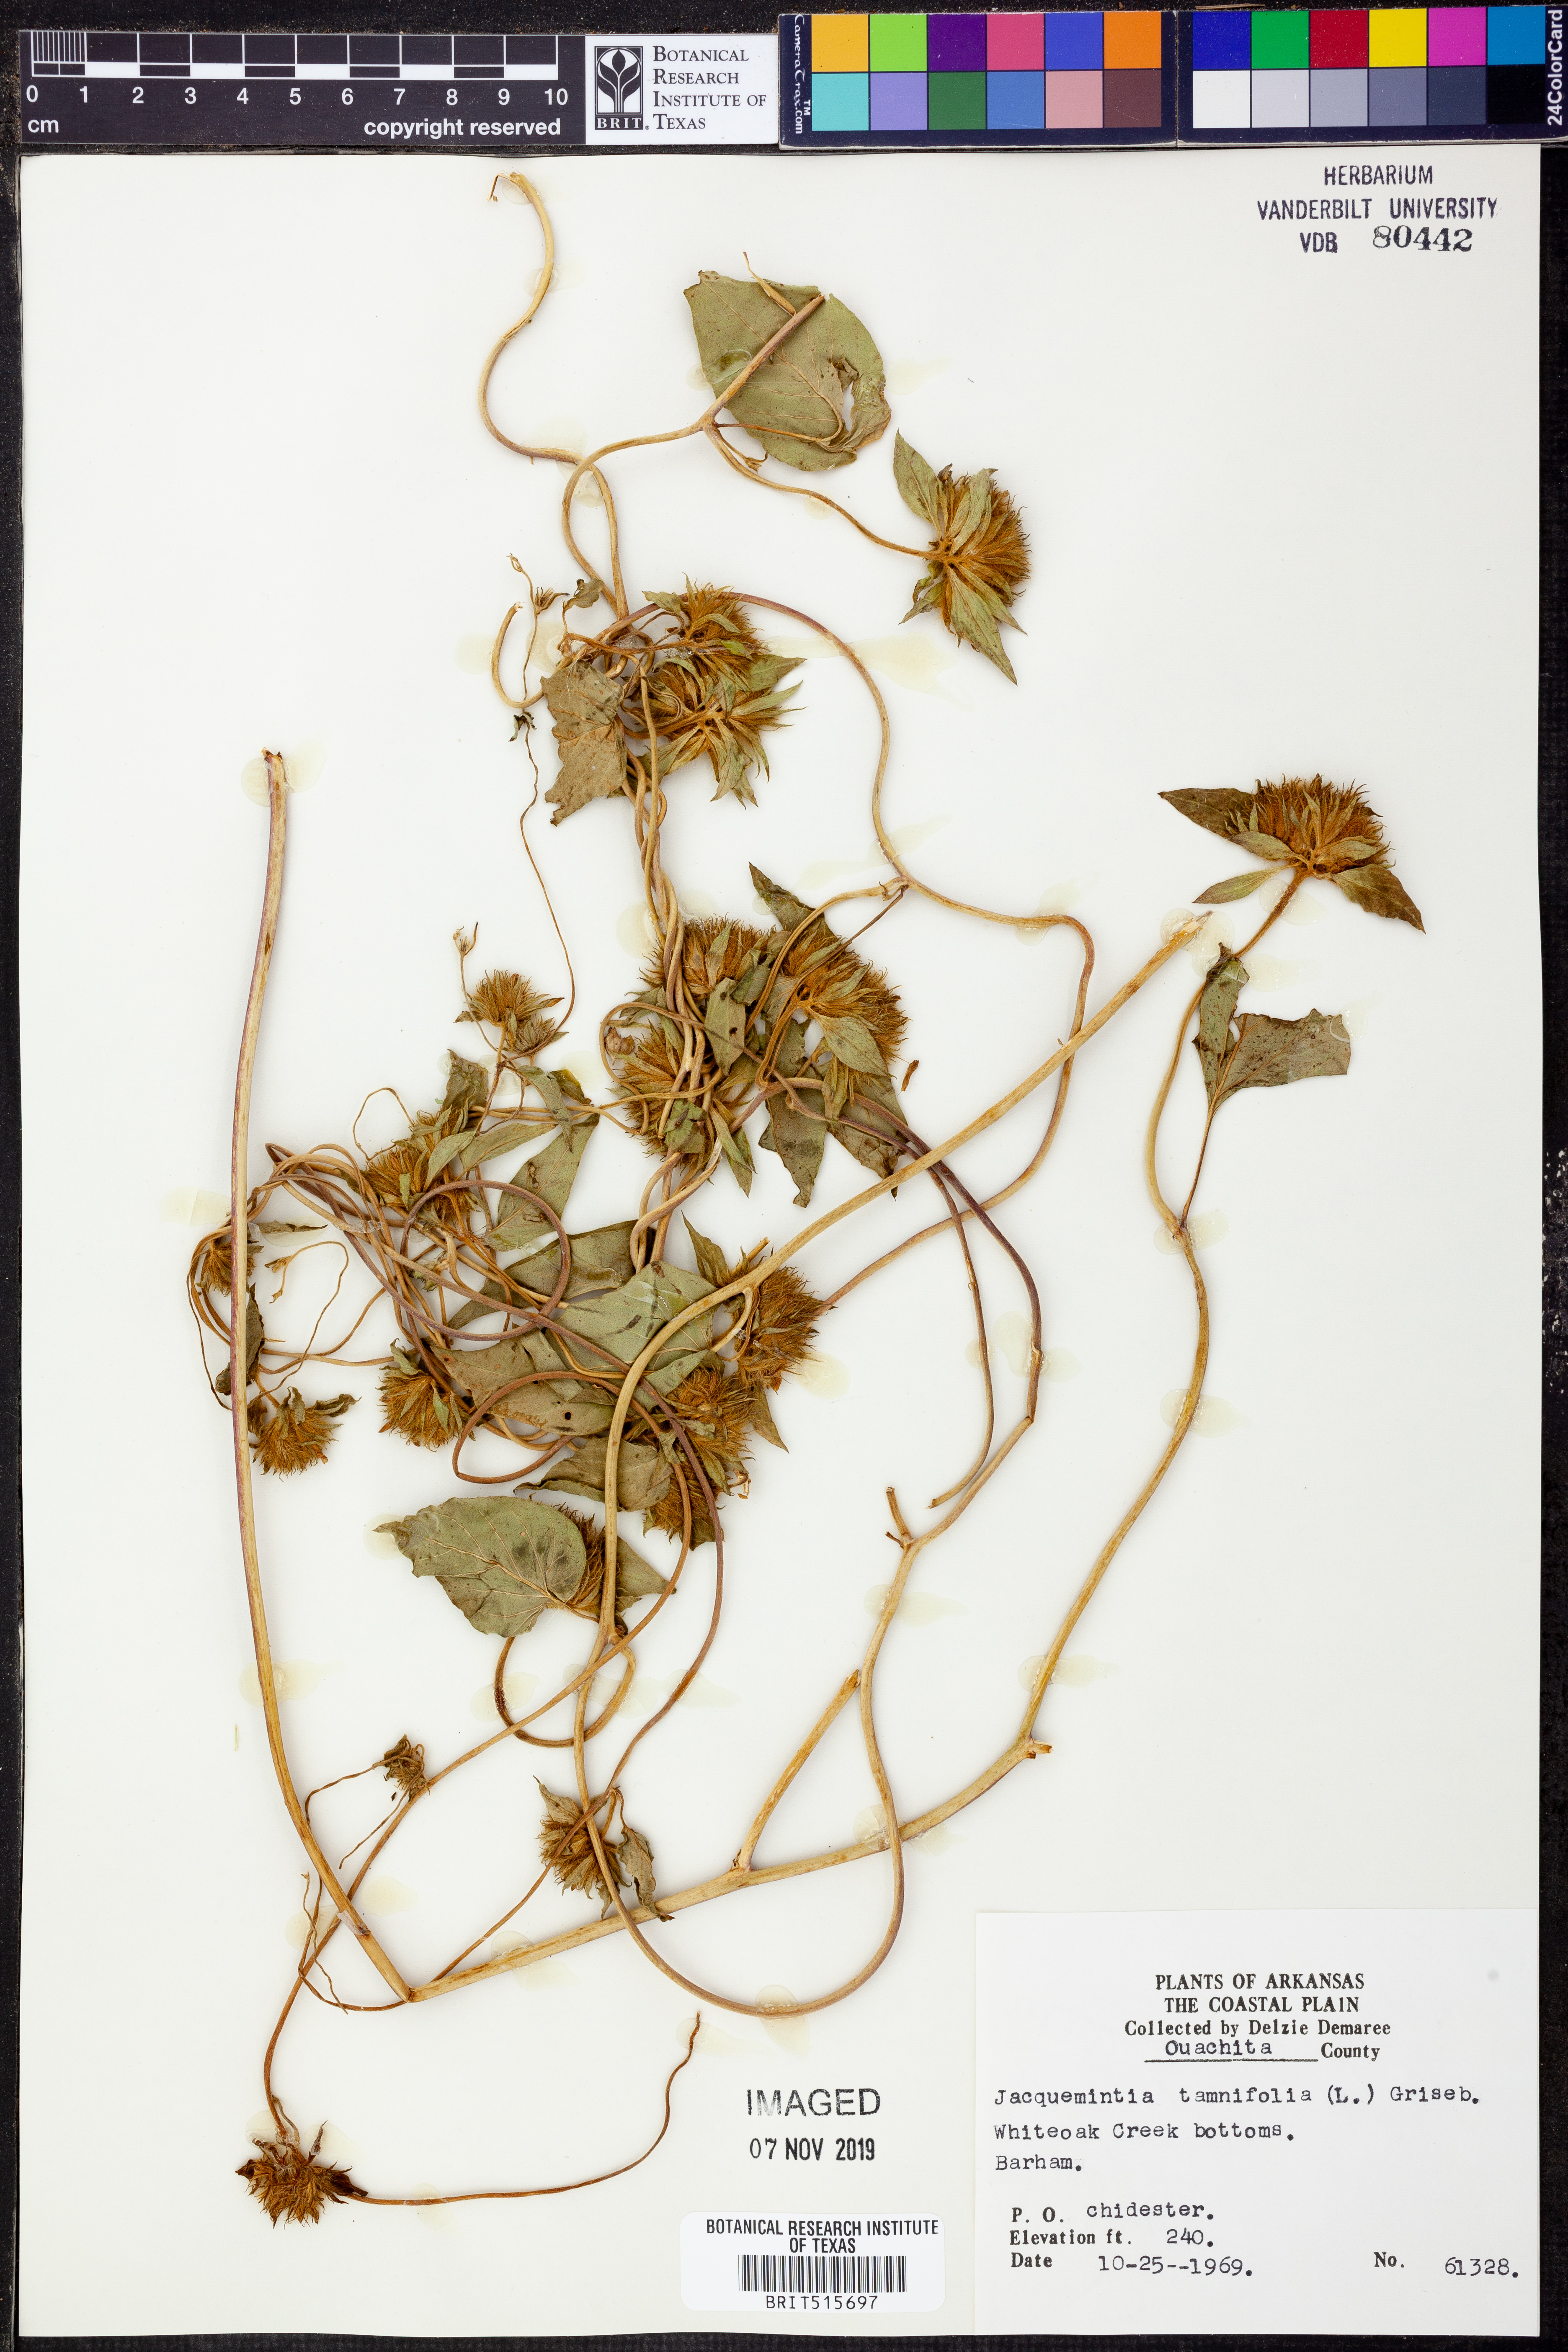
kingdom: Plantae
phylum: Tracheophyta
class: Magnoliopsida
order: Solanales
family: Convolvulaceae
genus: Jacquemontia
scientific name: Jacquemontia tamnifolia
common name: Hairy clustervine
